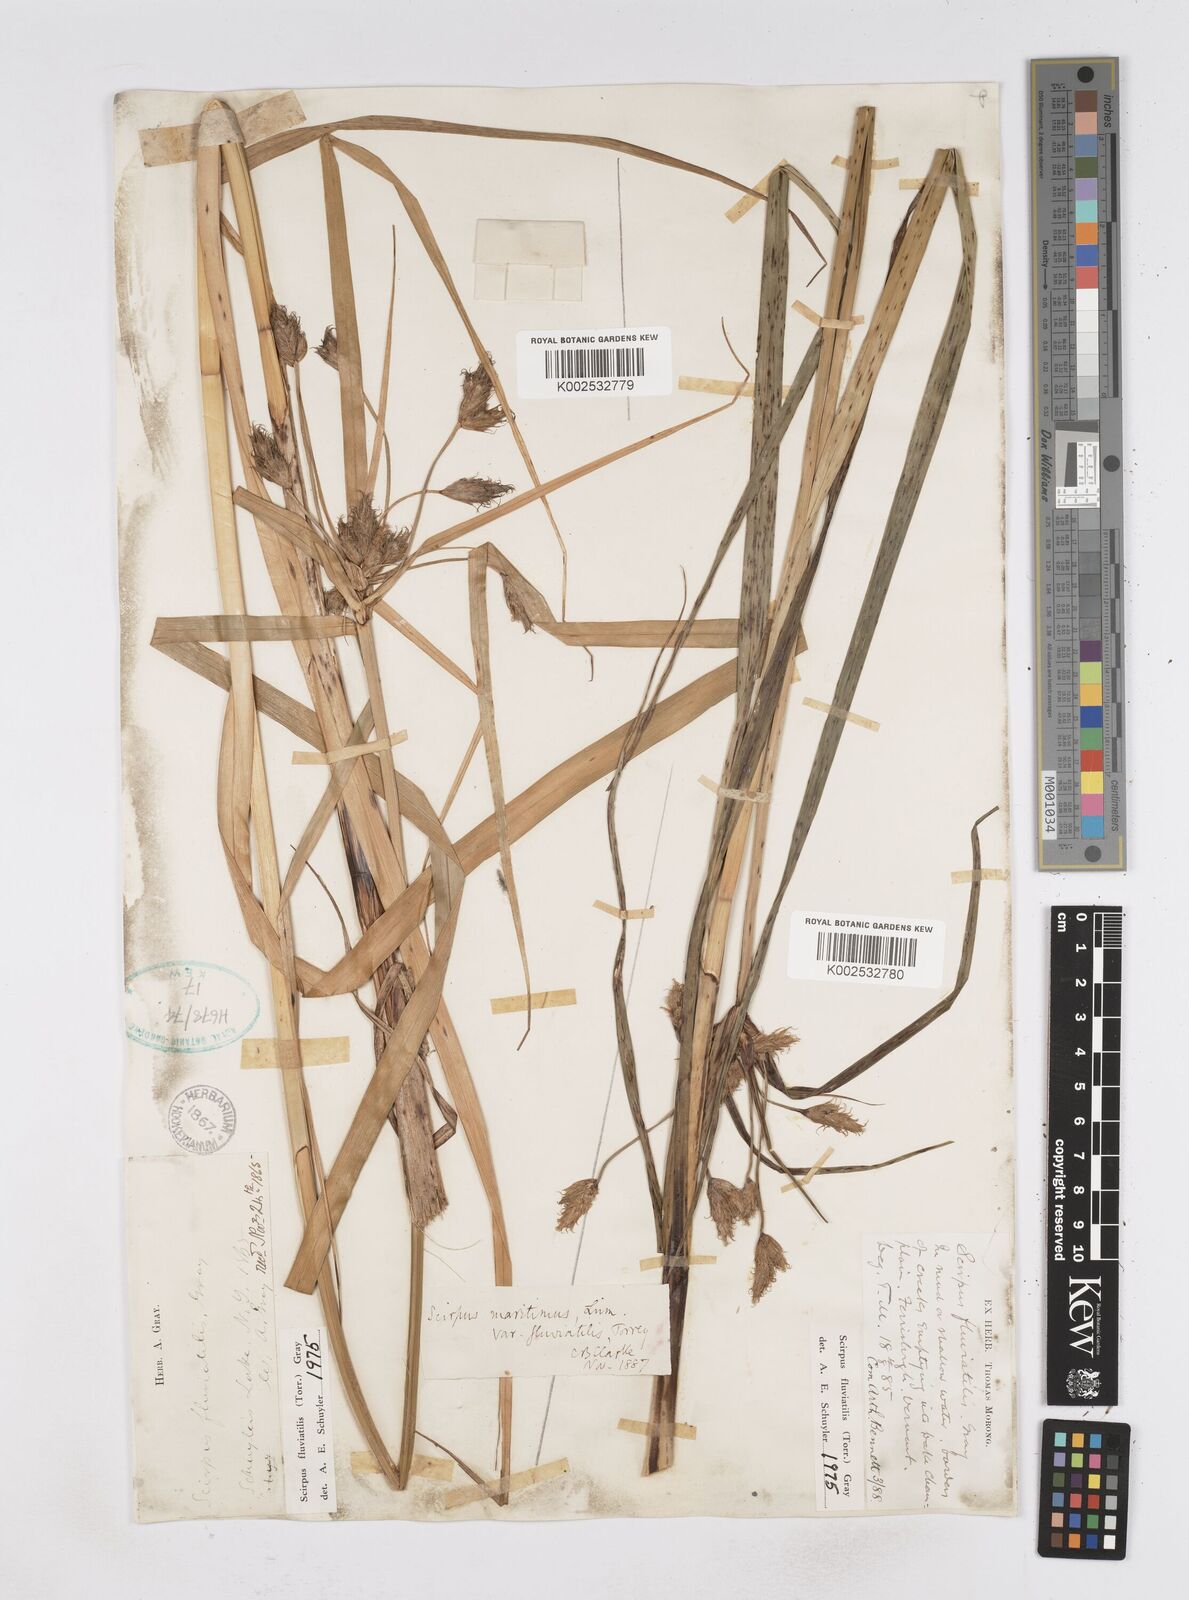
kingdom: Plantae
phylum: Tracheophyta
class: Liliopsida
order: Poales
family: Cyperaceae
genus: Bolboschoenus
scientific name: Bolboschoenus
